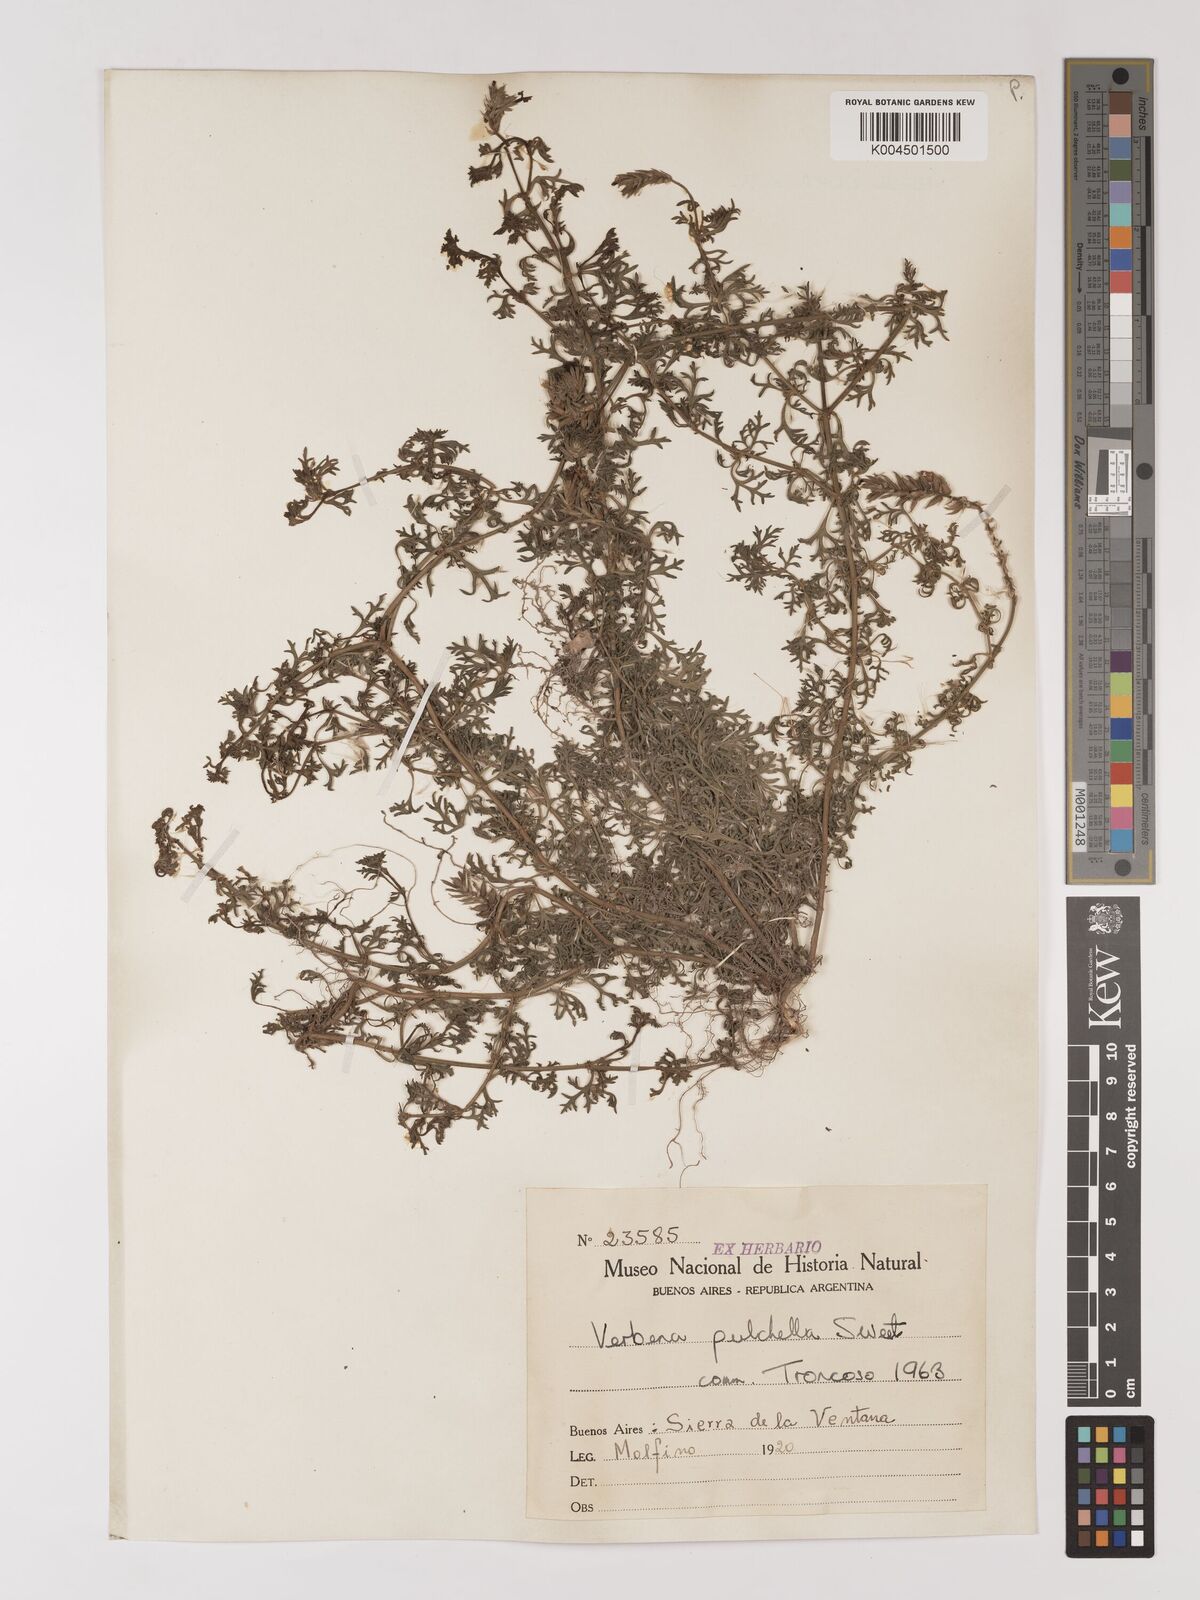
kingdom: Plantae
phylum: Tracheophyta
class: Magnoliopsida
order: Lamiales
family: Verbenaceae
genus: Verbena
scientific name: Verbena tenera
